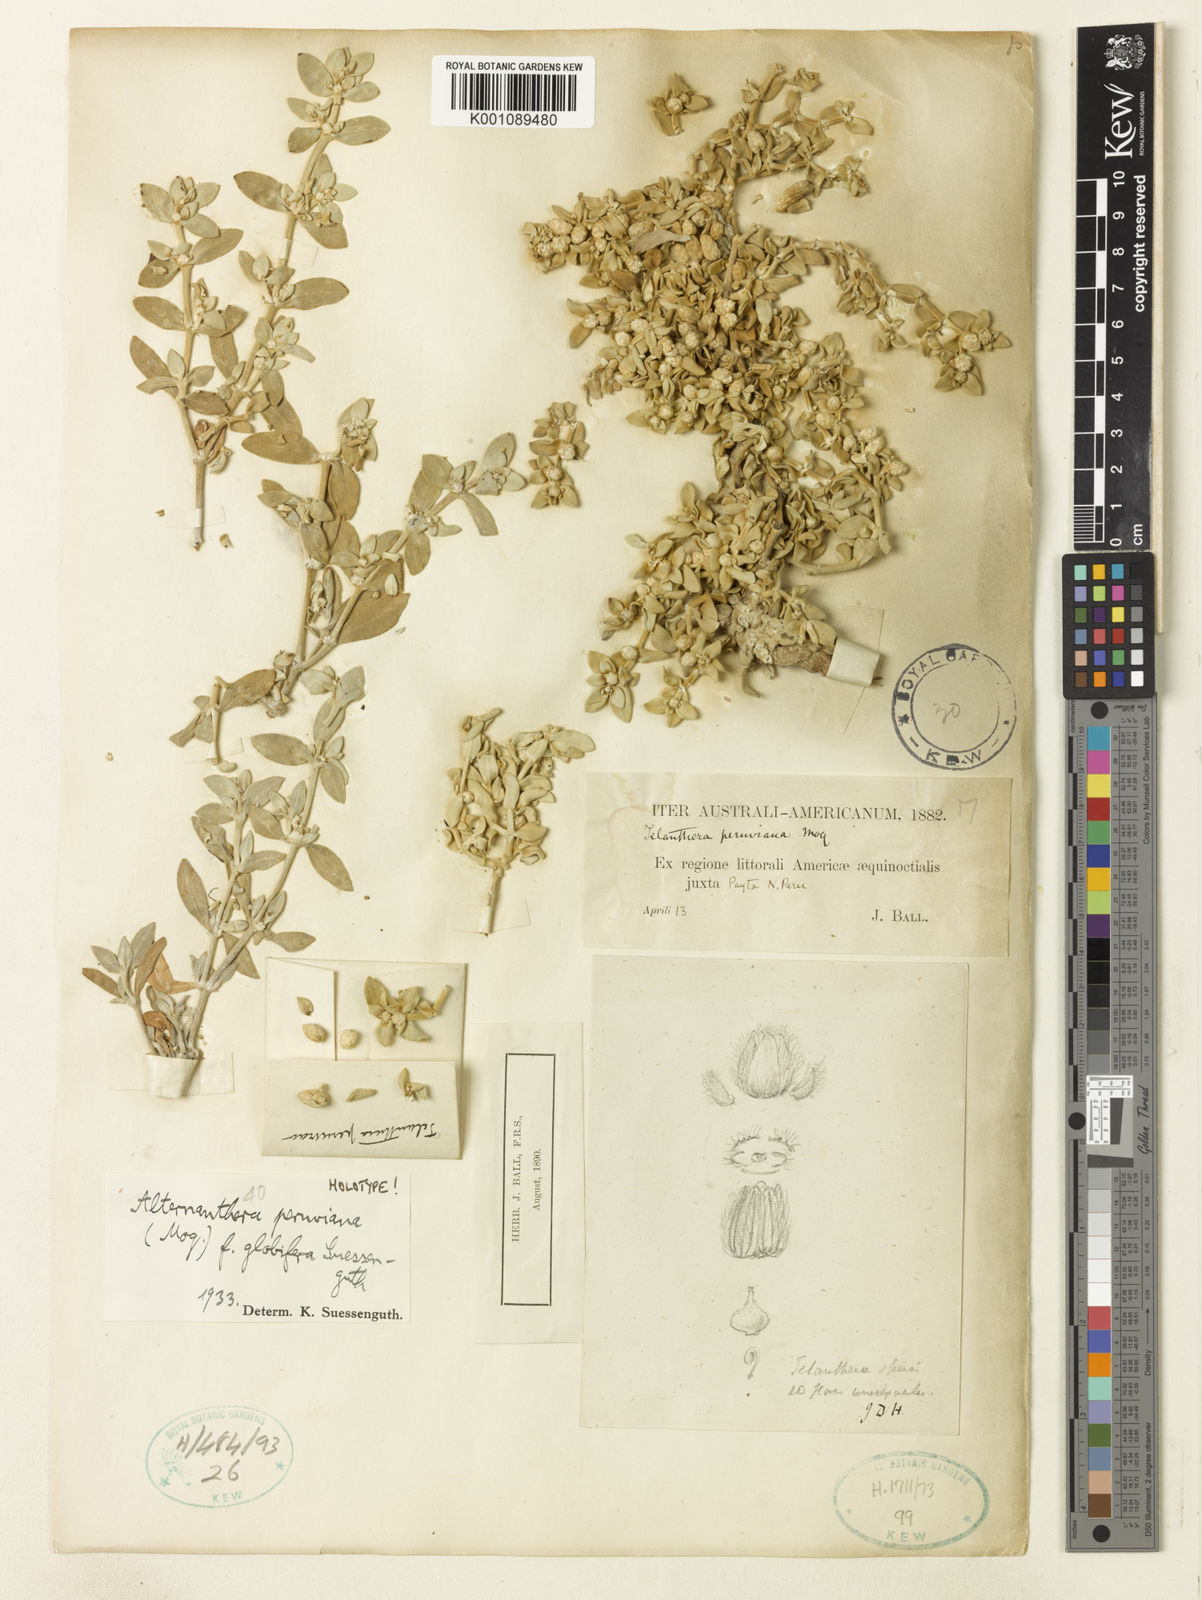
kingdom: Plantae
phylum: Tracheophyta
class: Magnoliopsida
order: Caryophyllales
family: Amaranthaceae
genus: Alternanthera
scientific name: Alternanthera peruviana
